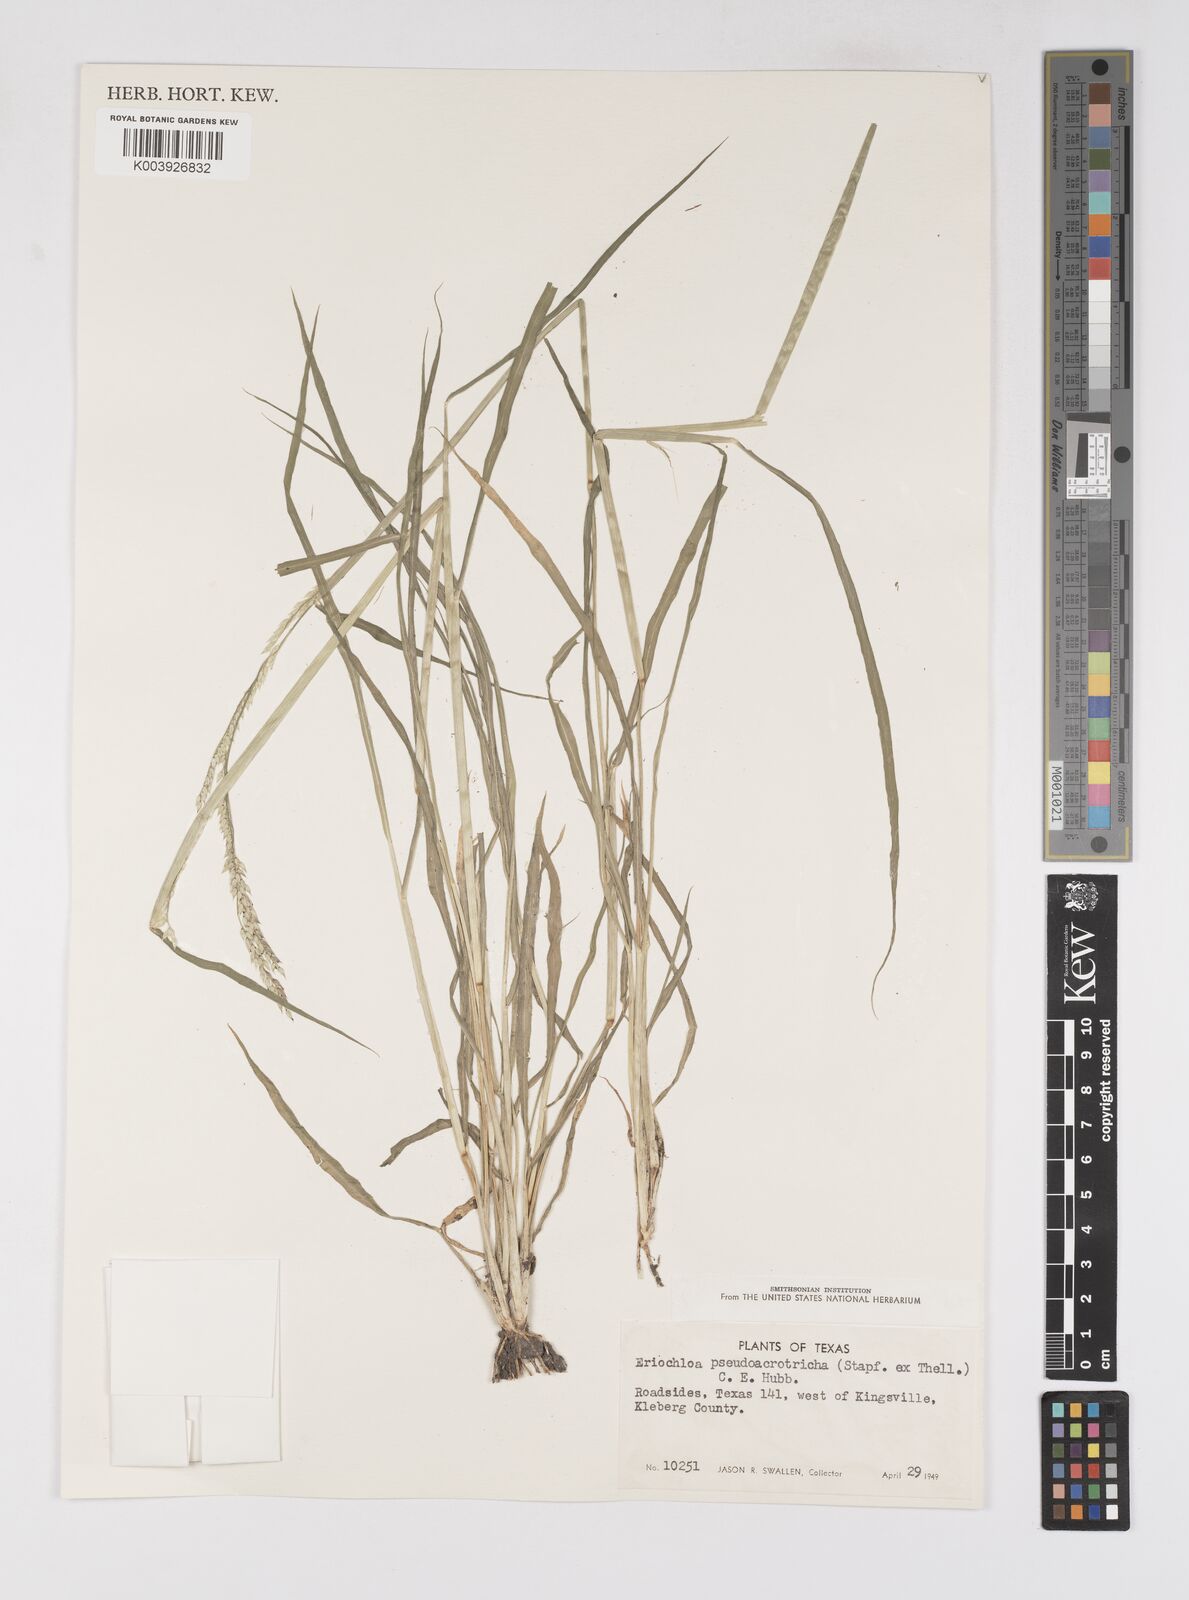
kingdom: Plantae
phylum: Tracheophyta
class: Liliopsida
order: Poales
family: Poaceae
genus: Eriochloa
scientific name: Eriochloa pseudoacrotricha
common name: Perennial cup-grass
